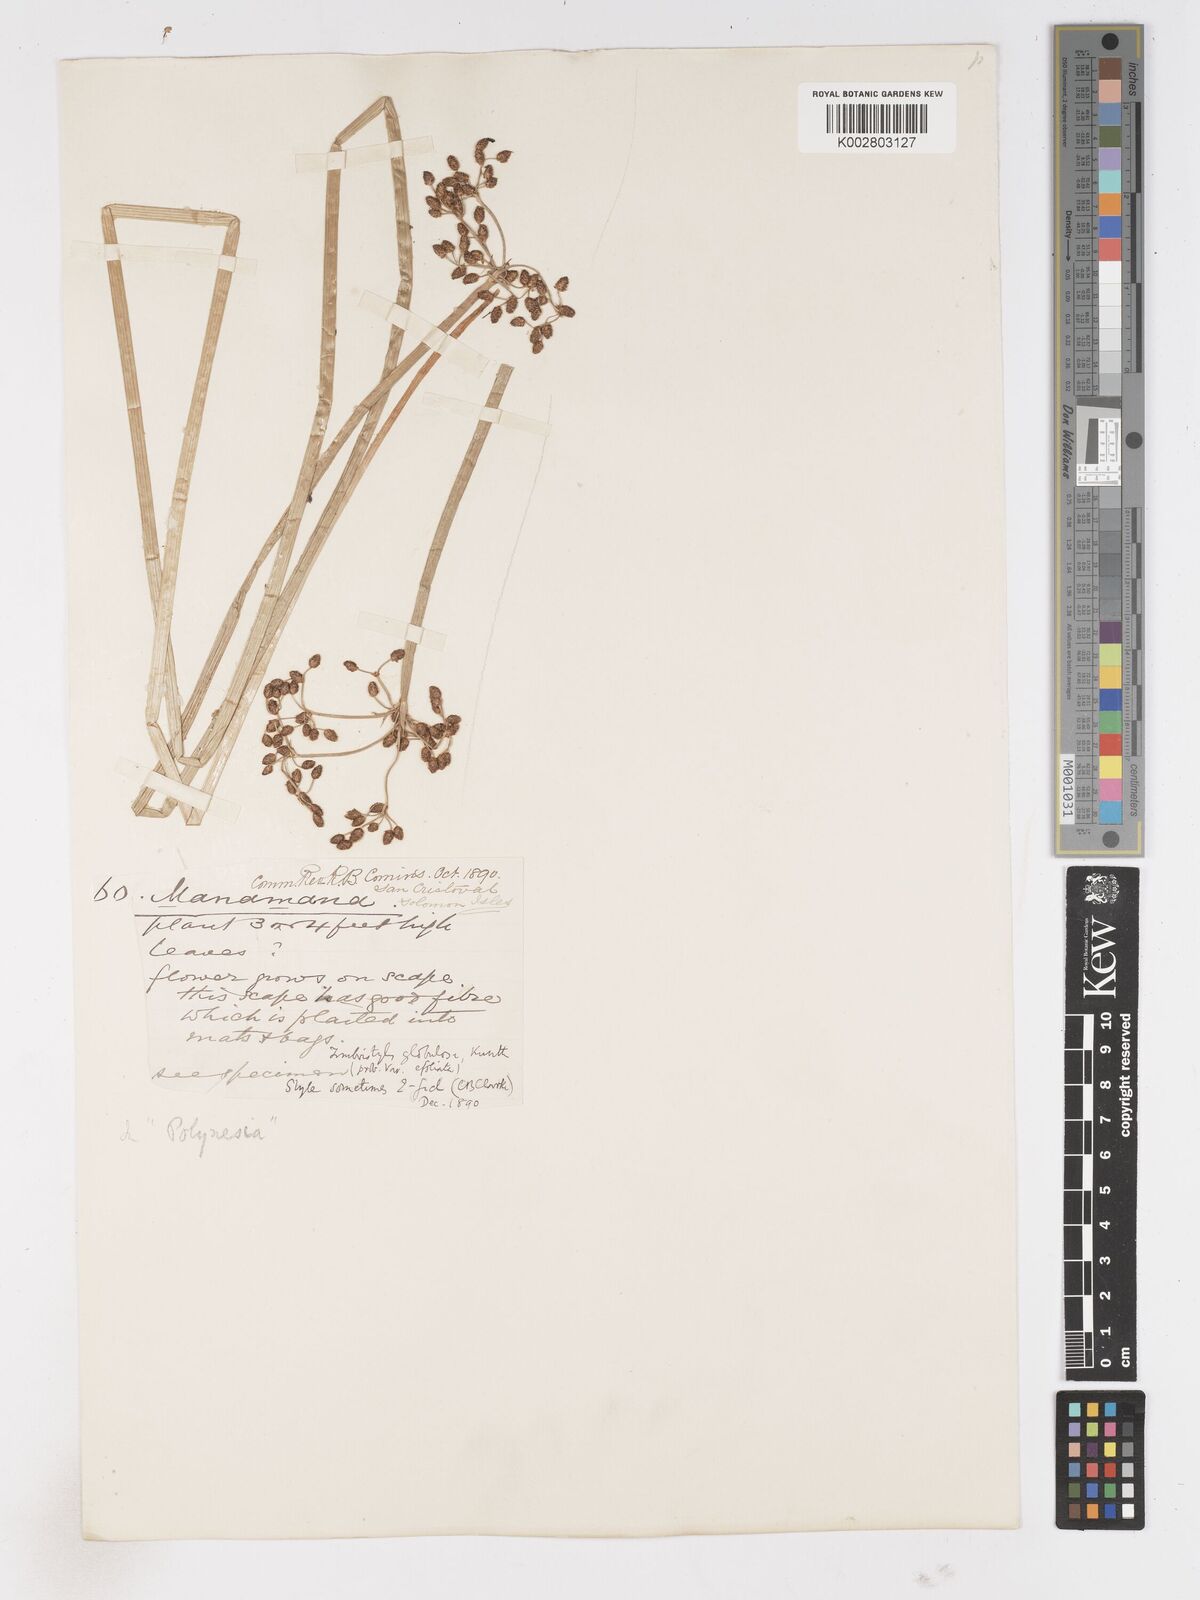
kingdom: Plantae
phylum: Tracheophyta
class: Liliopsida
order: Poales
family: Cyperaceae
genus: Fimbristylis
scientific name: Fimbristylis umbellaris
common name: Globular fimbristylis
